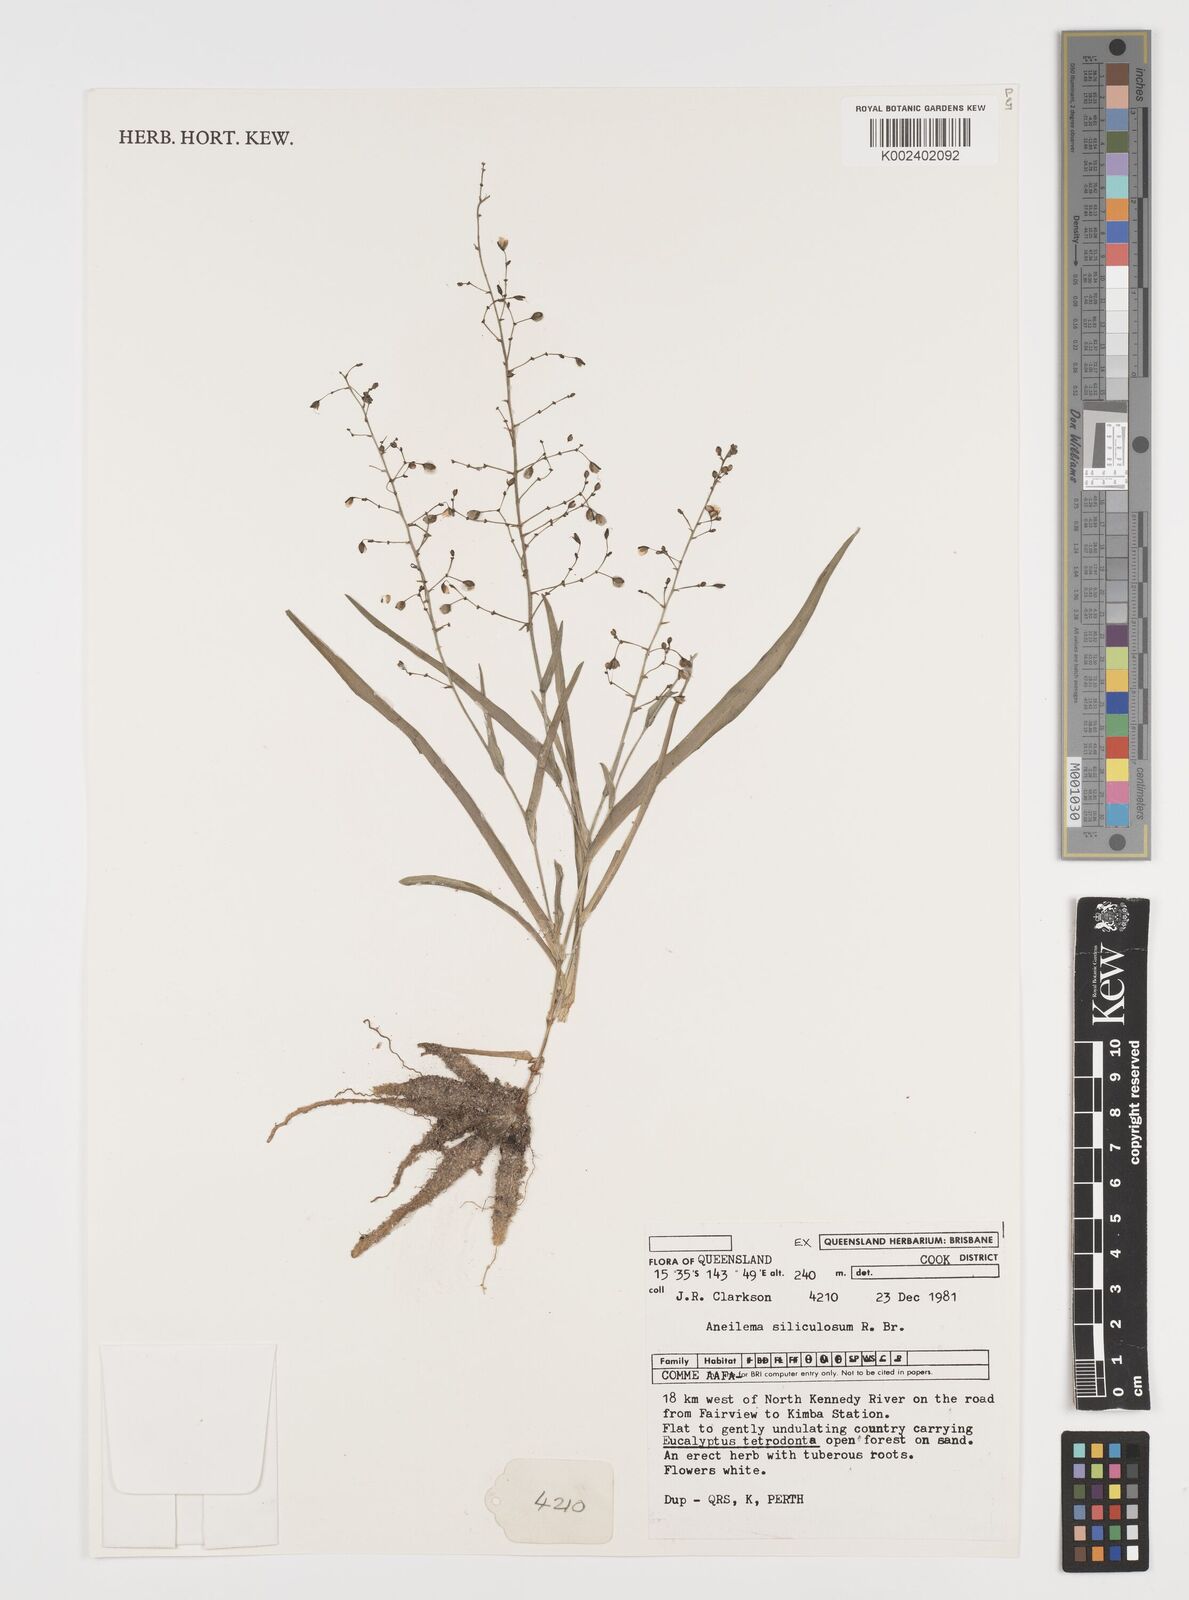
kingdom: Plantae
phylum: Tracheophyta
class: Liliopsida
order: Commelinales
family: Commelinaceae
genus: Aneilema
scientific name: Aneilema siliculosum
